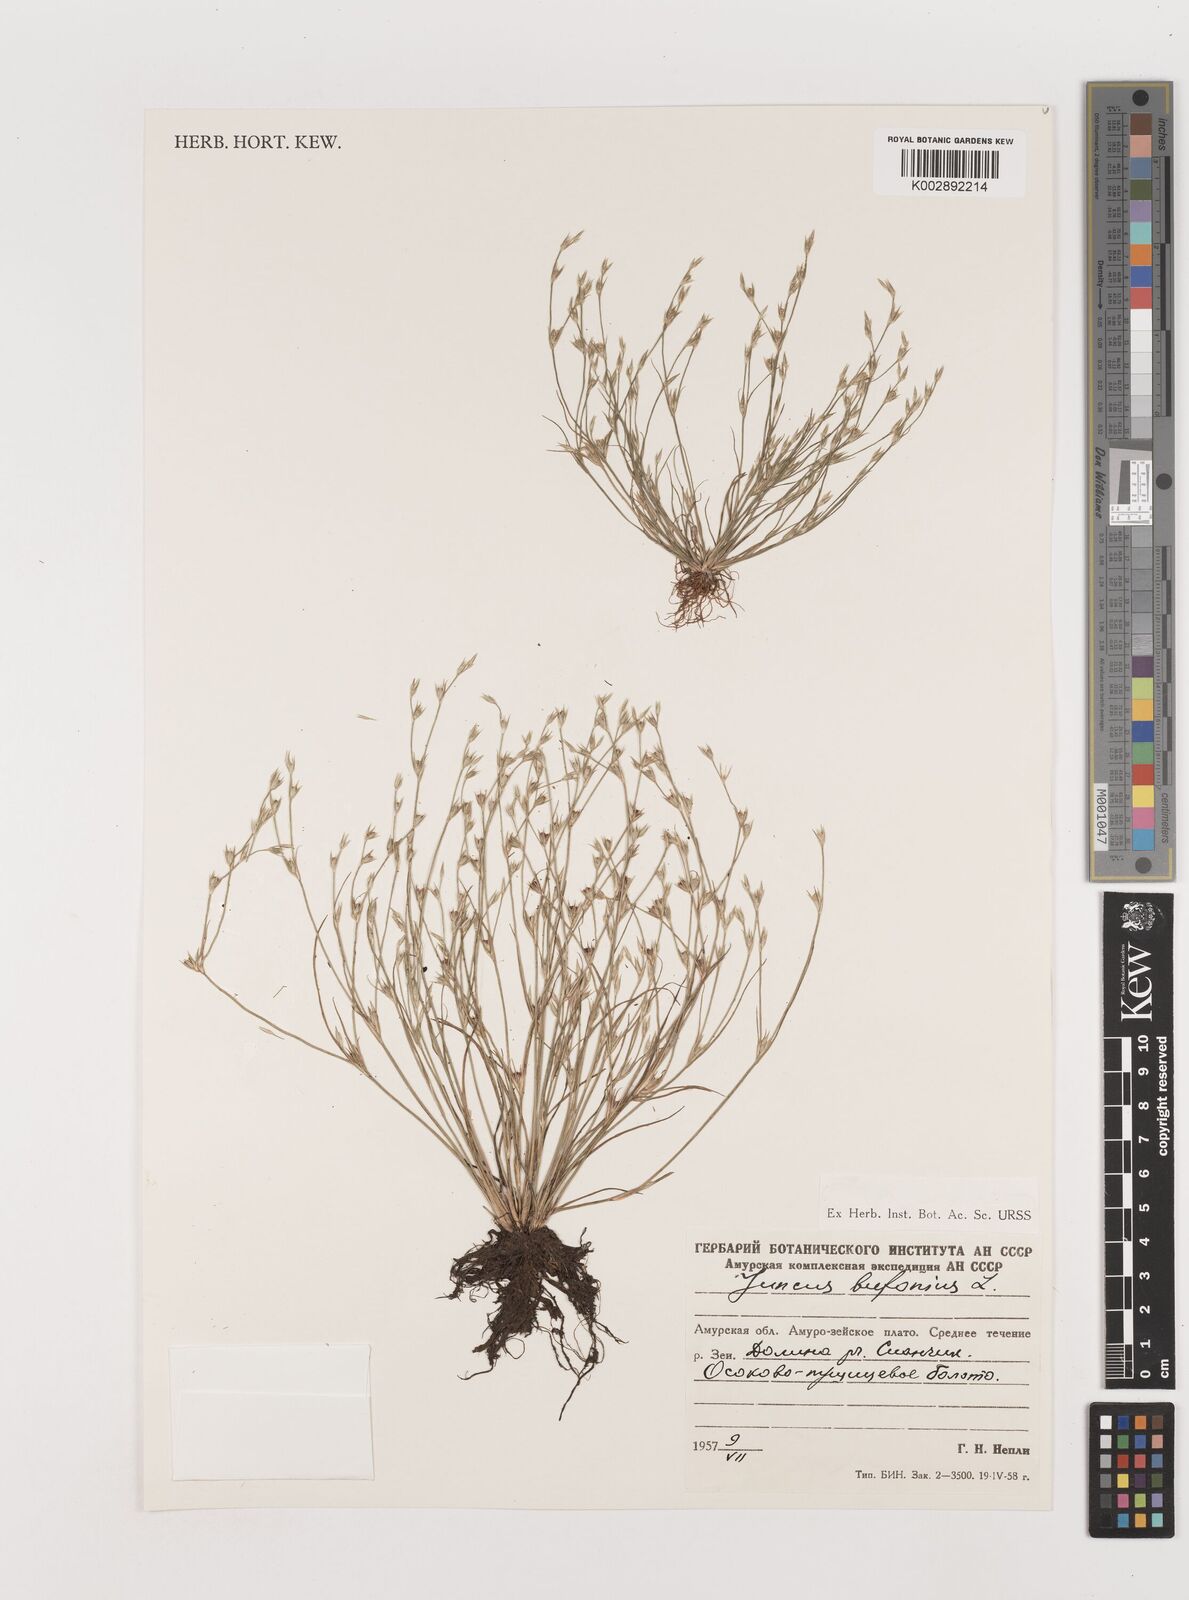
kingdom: Plantae
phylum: Tracheophyta
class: Liliopsida
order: Poales
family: Juncaceae
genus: Juncus
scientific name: Juncus bufonius
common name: Toad rush
